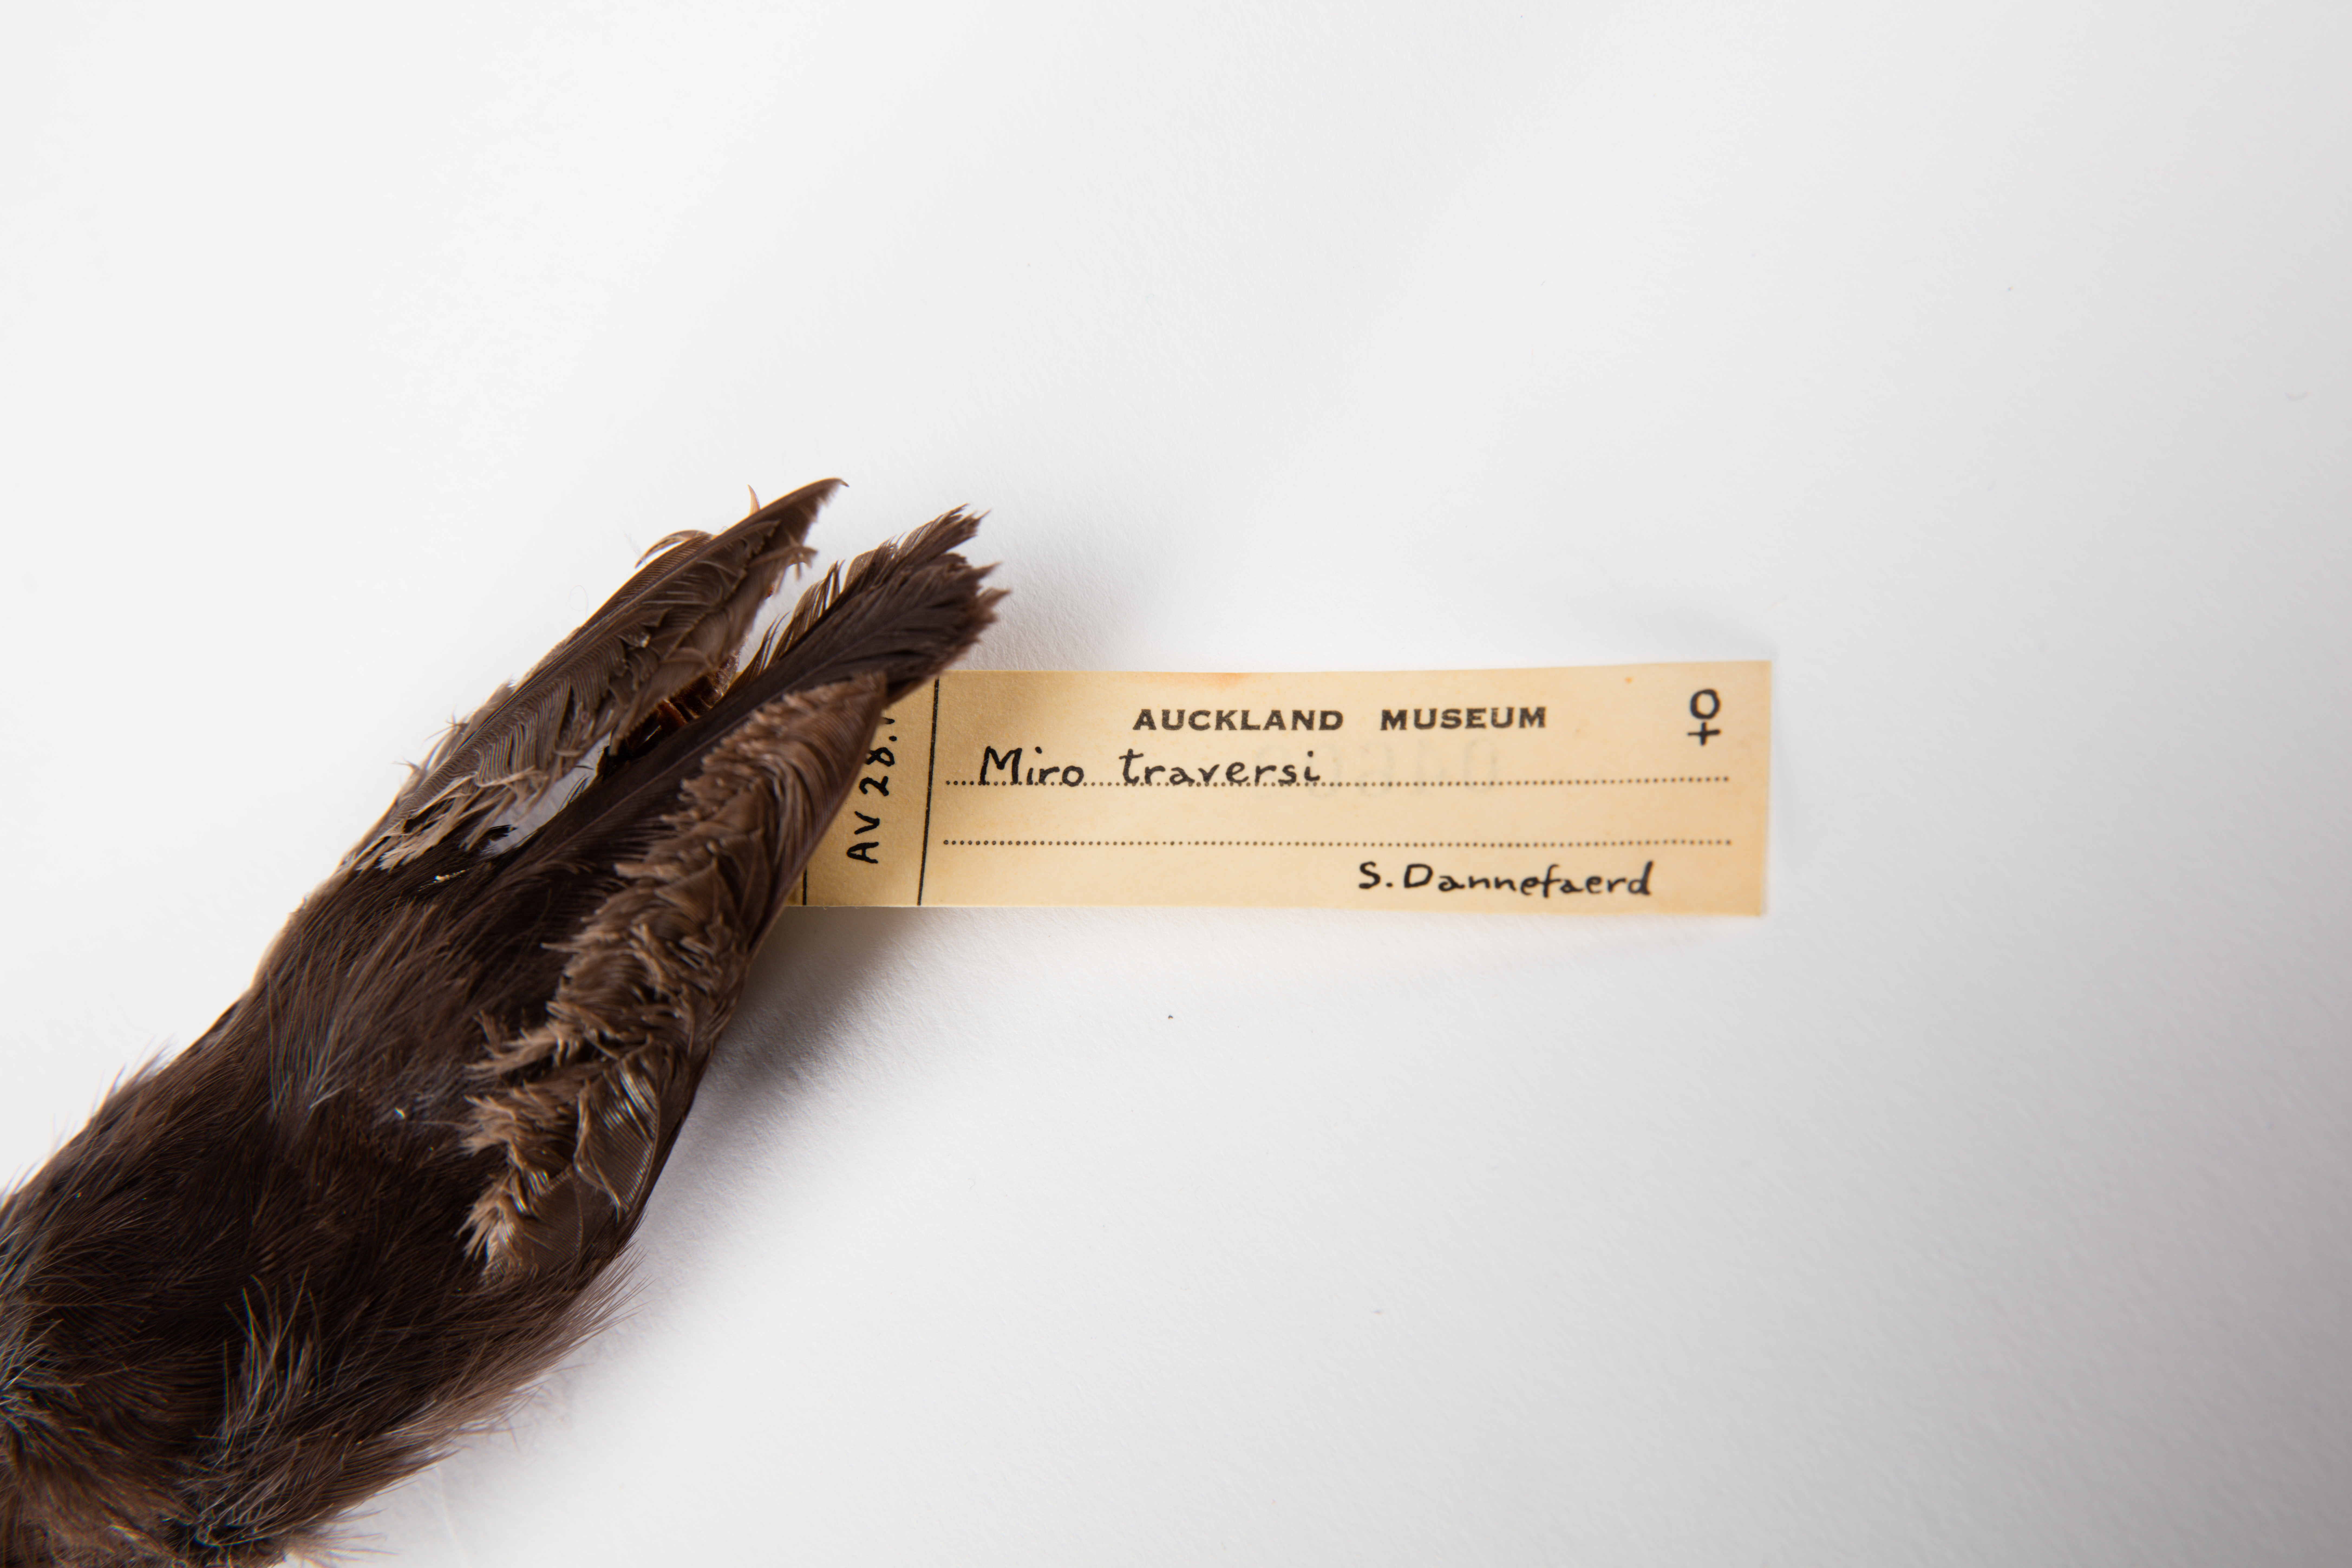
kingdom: Animalia
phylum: Chordata
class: Aves
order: Passeriformes
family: Petroicidae
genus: Petroica
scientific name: Petroica traversi
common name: Black robin
